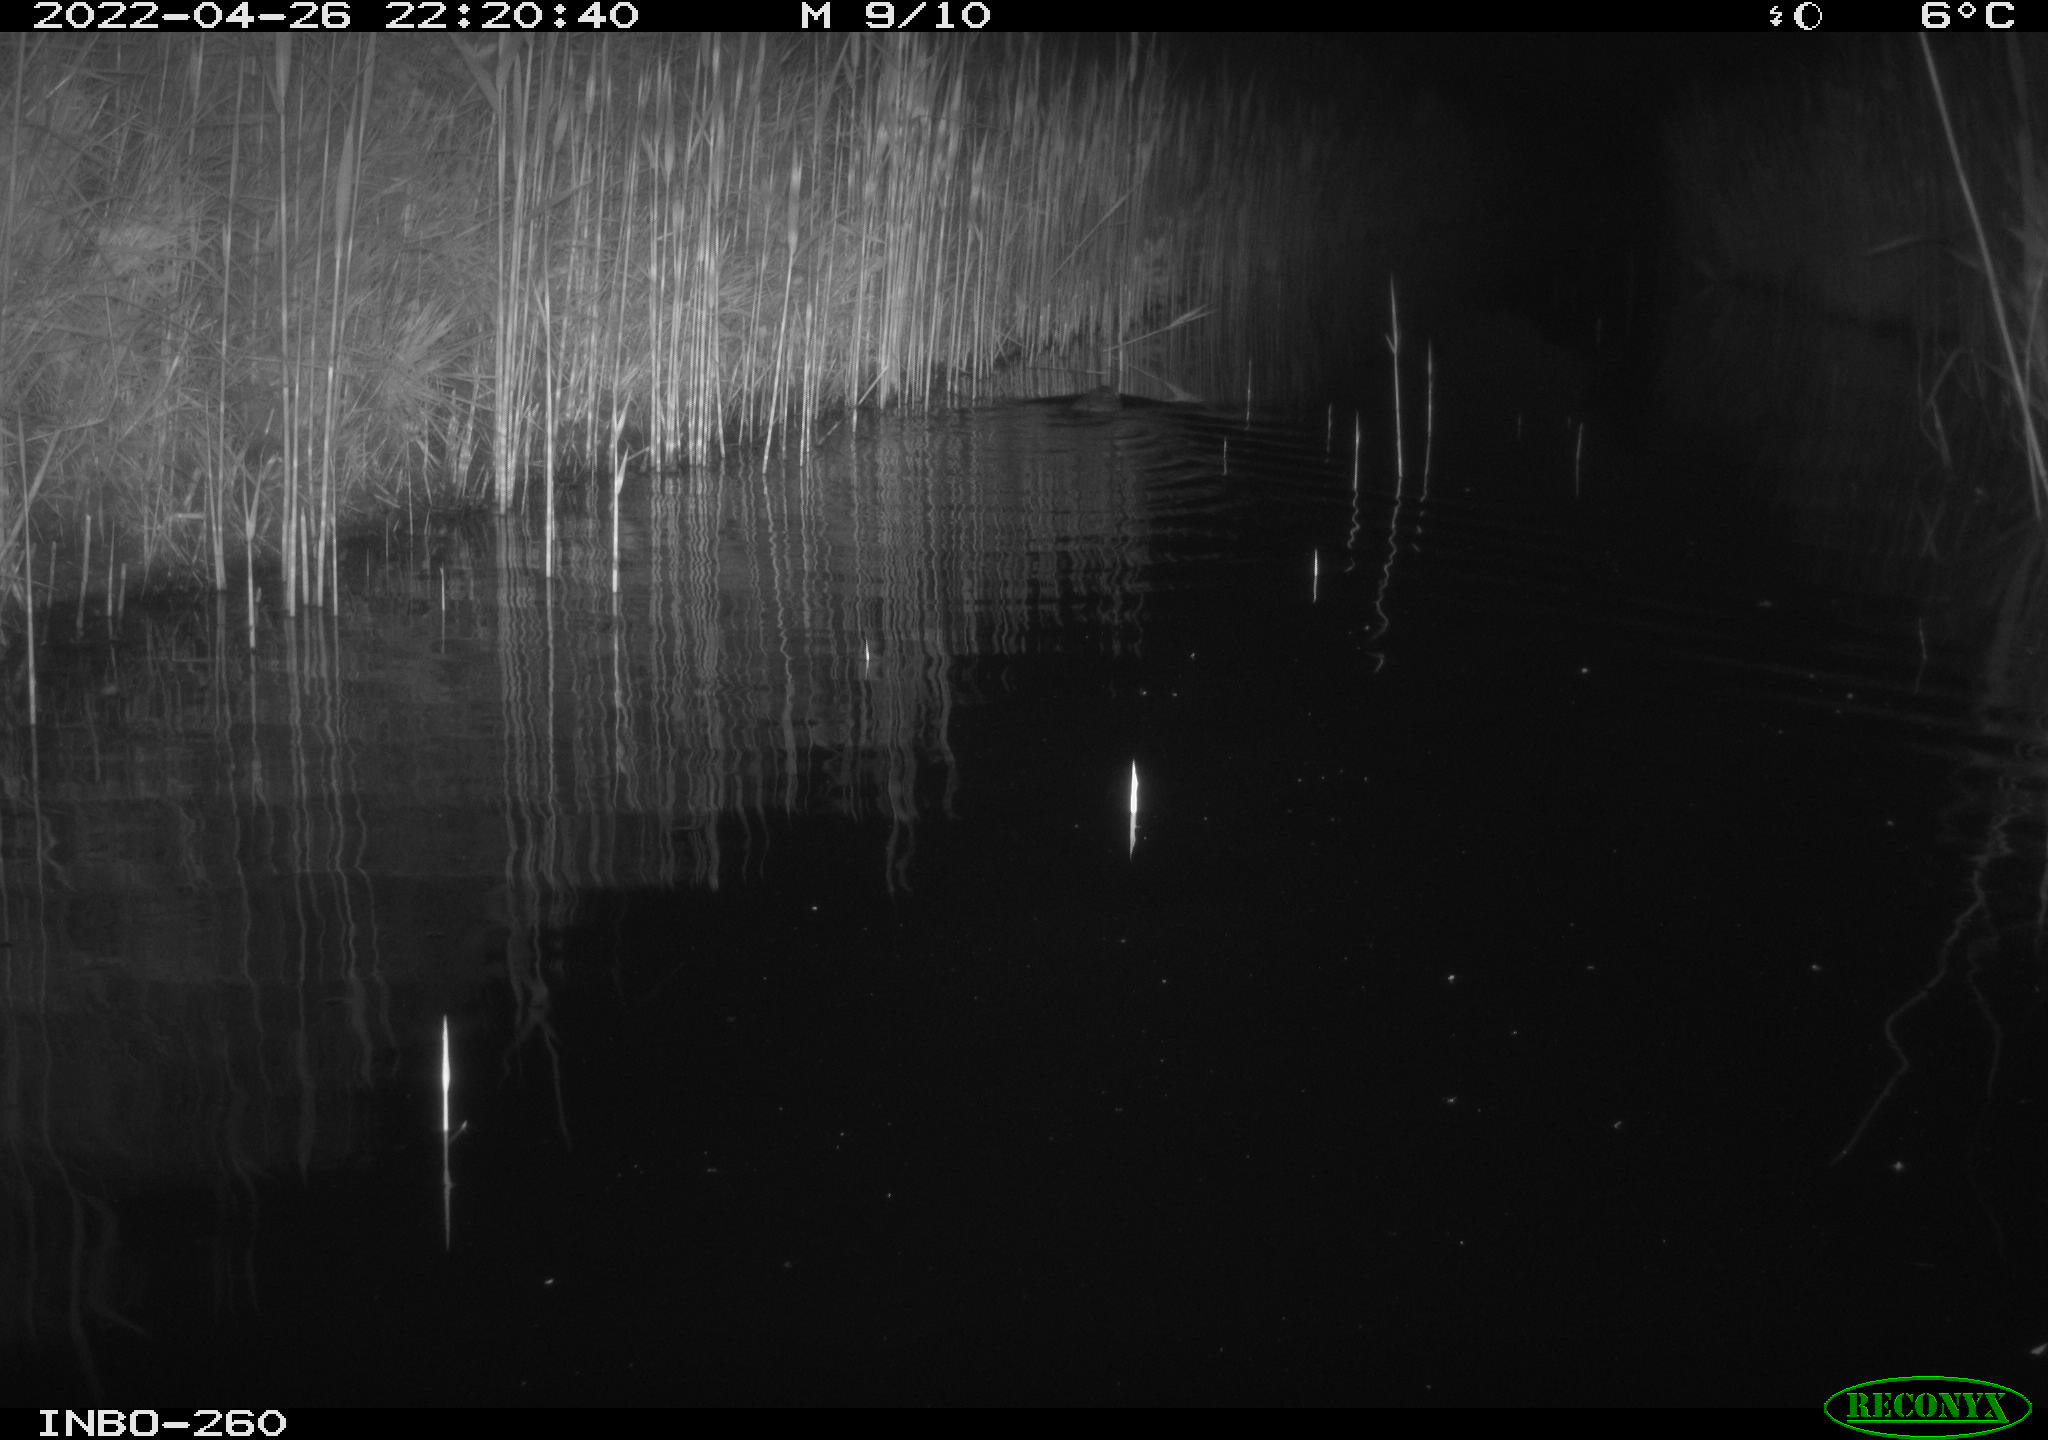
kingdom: Animalia
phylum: Chordata
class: Mammalia
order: Rodentia
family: Cricetidae
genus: Ondatra
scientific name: Ondatra zibethicus
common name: Muskrat
